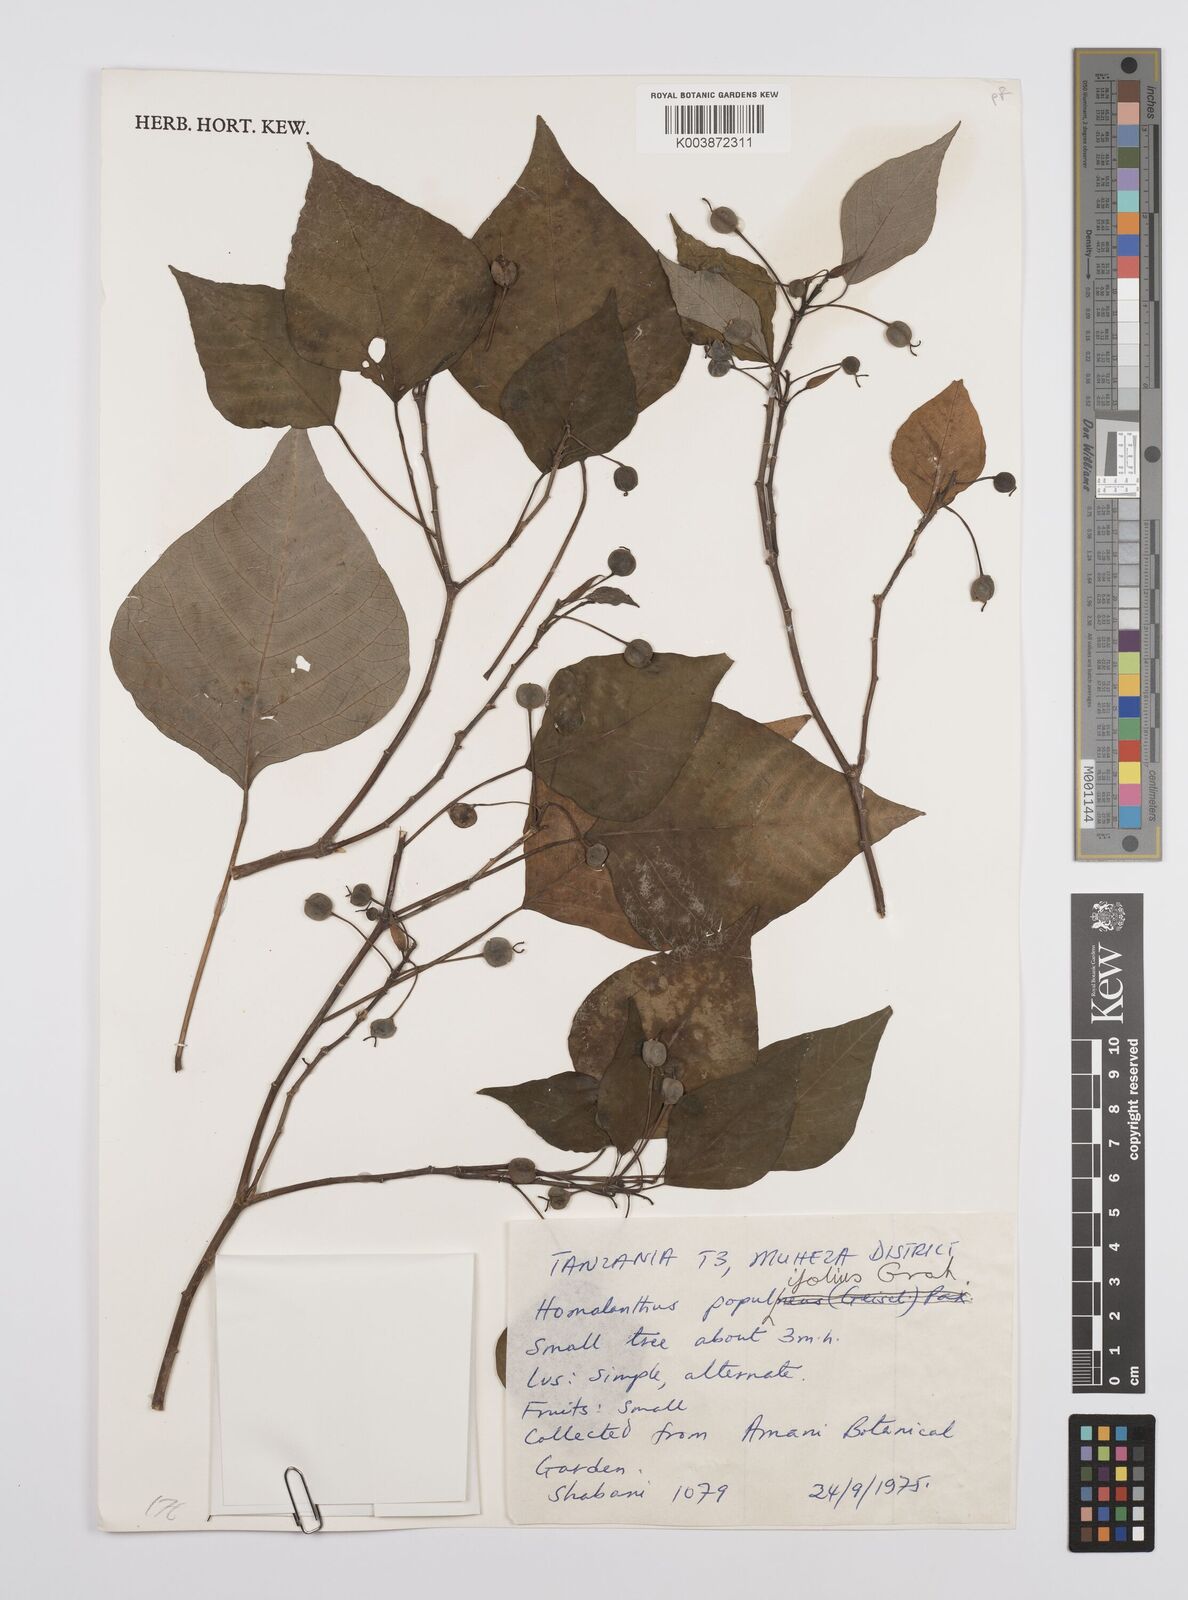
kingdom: Plantae
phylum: Tracheophyta
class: Magnoliopsida
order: Malpighiales
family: Euphorbiaceae
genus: Homalanthus
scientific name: Homalanthus populifolius
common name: Queensland poplar
